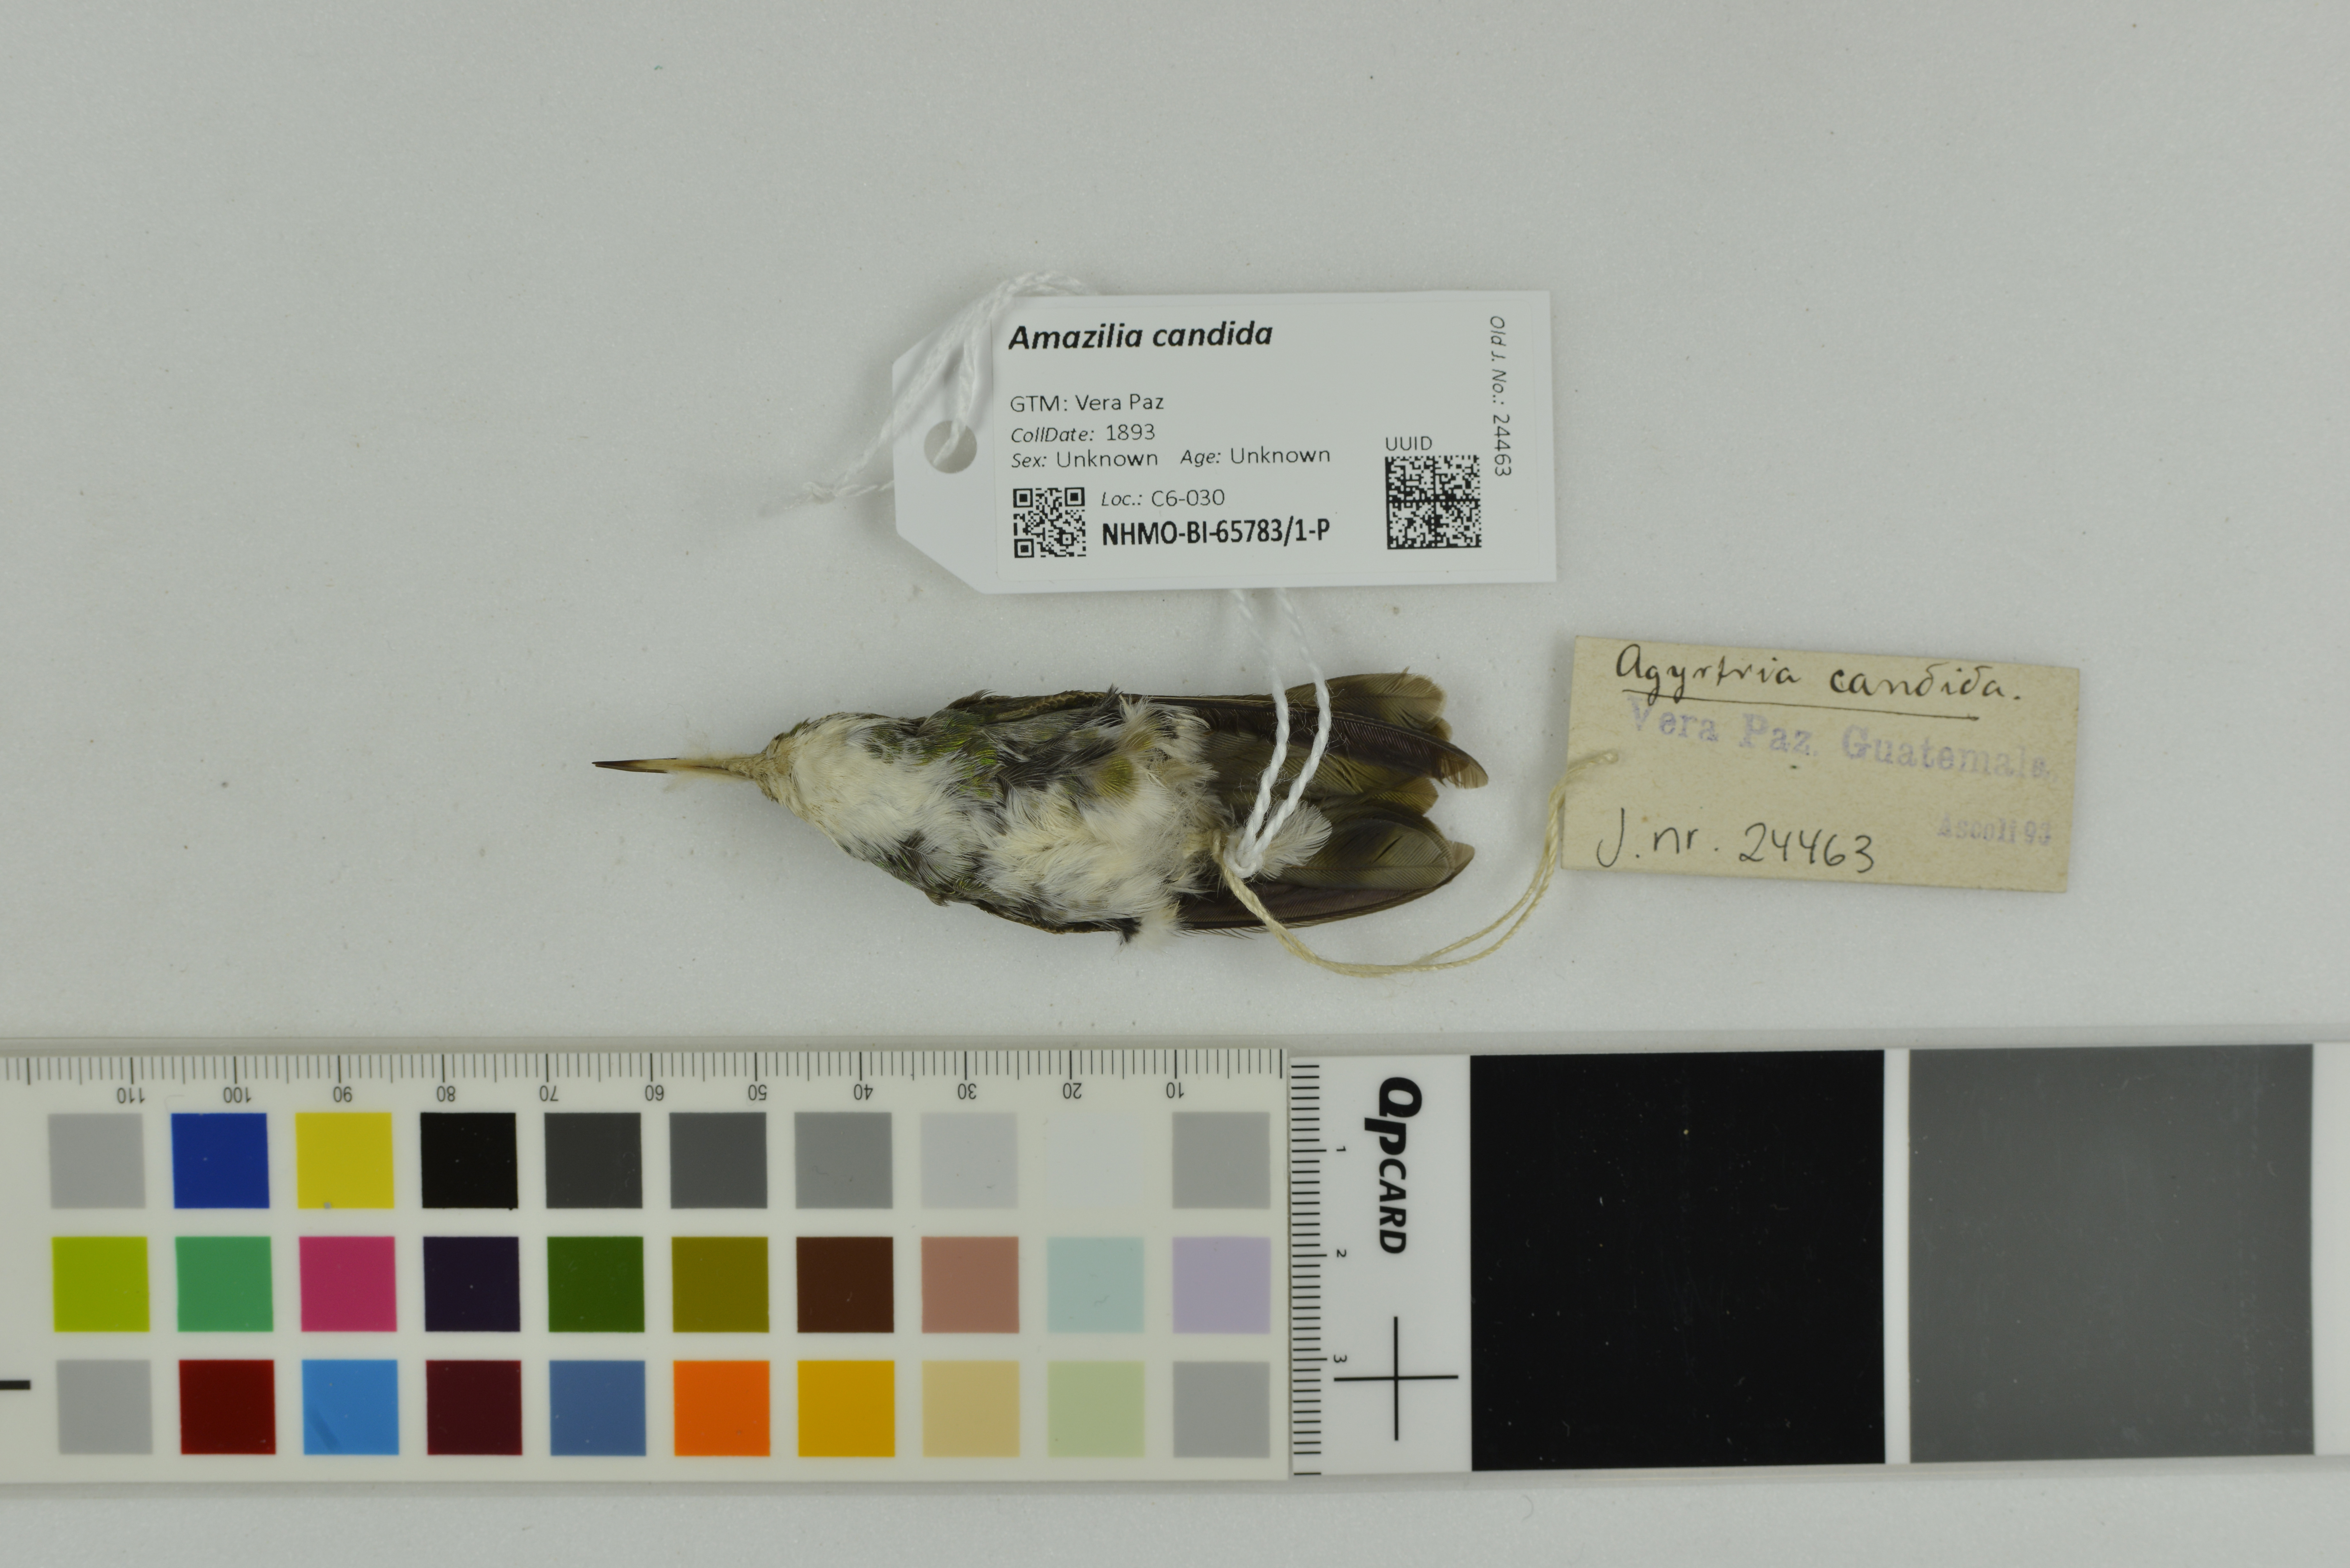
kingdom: Animalia
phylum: Chordata
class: Aves
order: Apodiformes
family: Trochilidae
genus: Chlorestes
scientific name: Chlorestes candida
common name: White-bellied emerald
